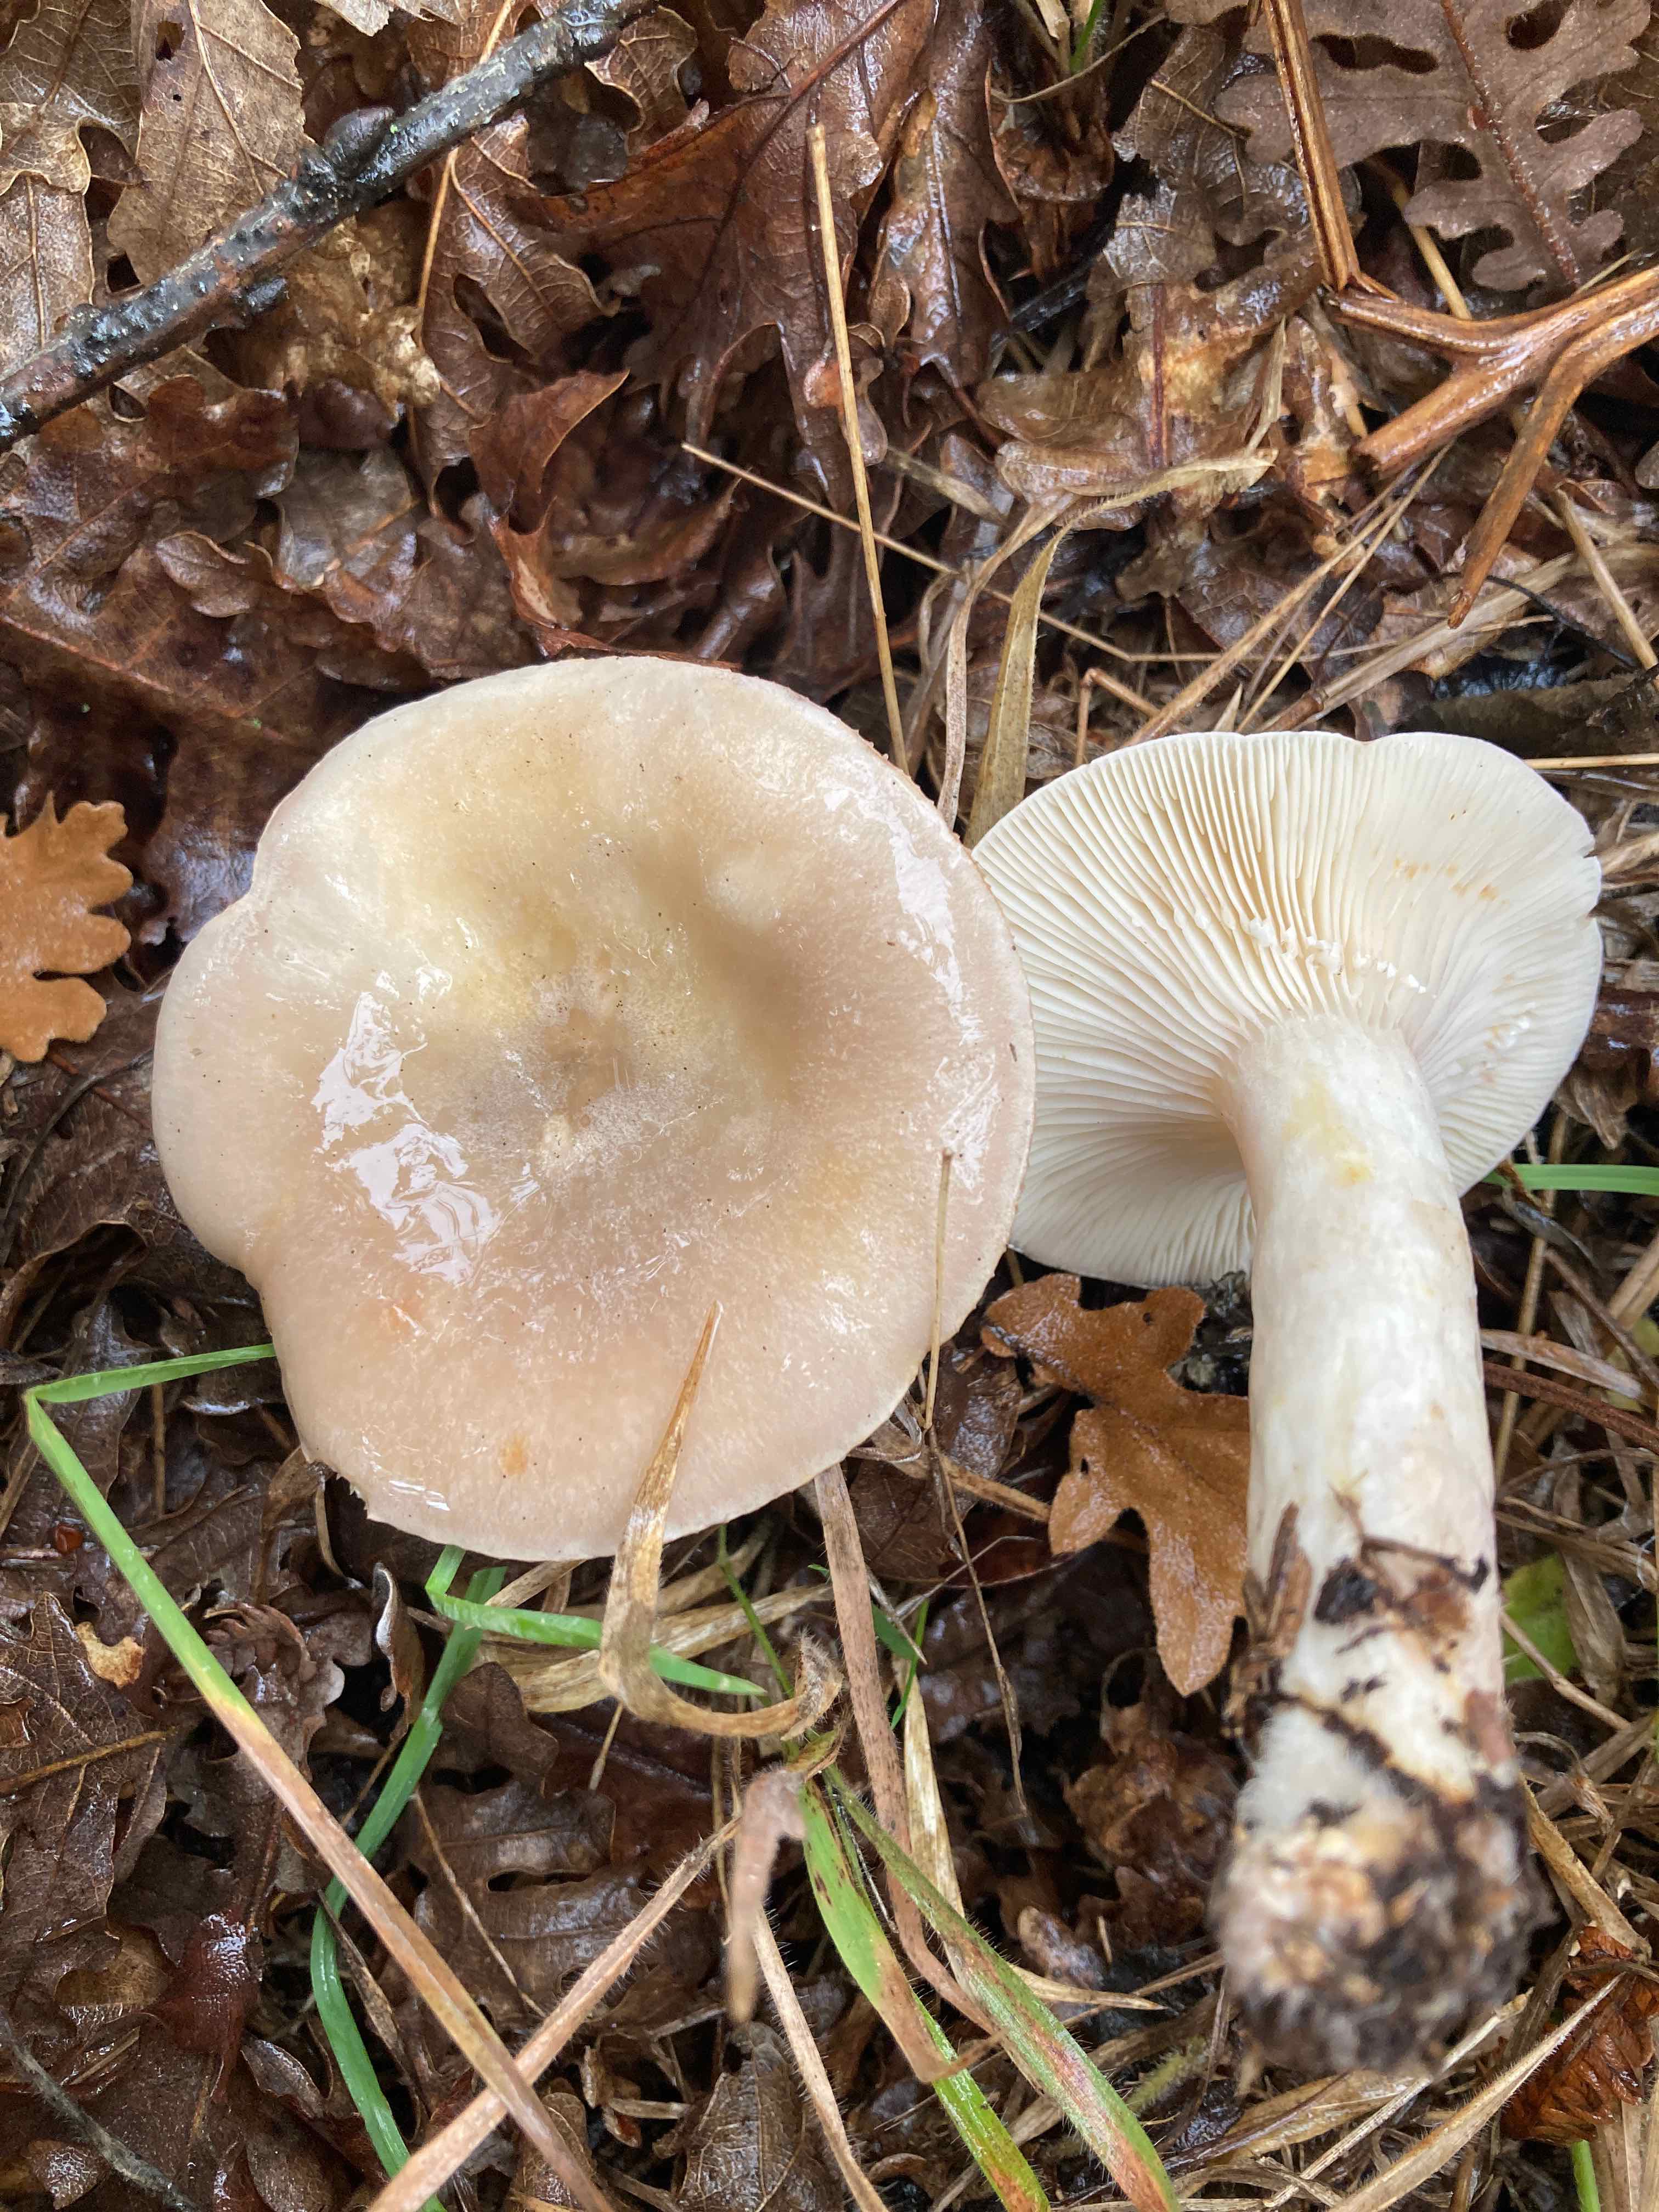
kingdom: Fungi
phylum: Basidiomycota
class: Agaricomycetes
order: Russulales
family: Russulaceae
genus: Lactarius
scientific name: Lactarius luridus
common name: violetbrun mælkehat
